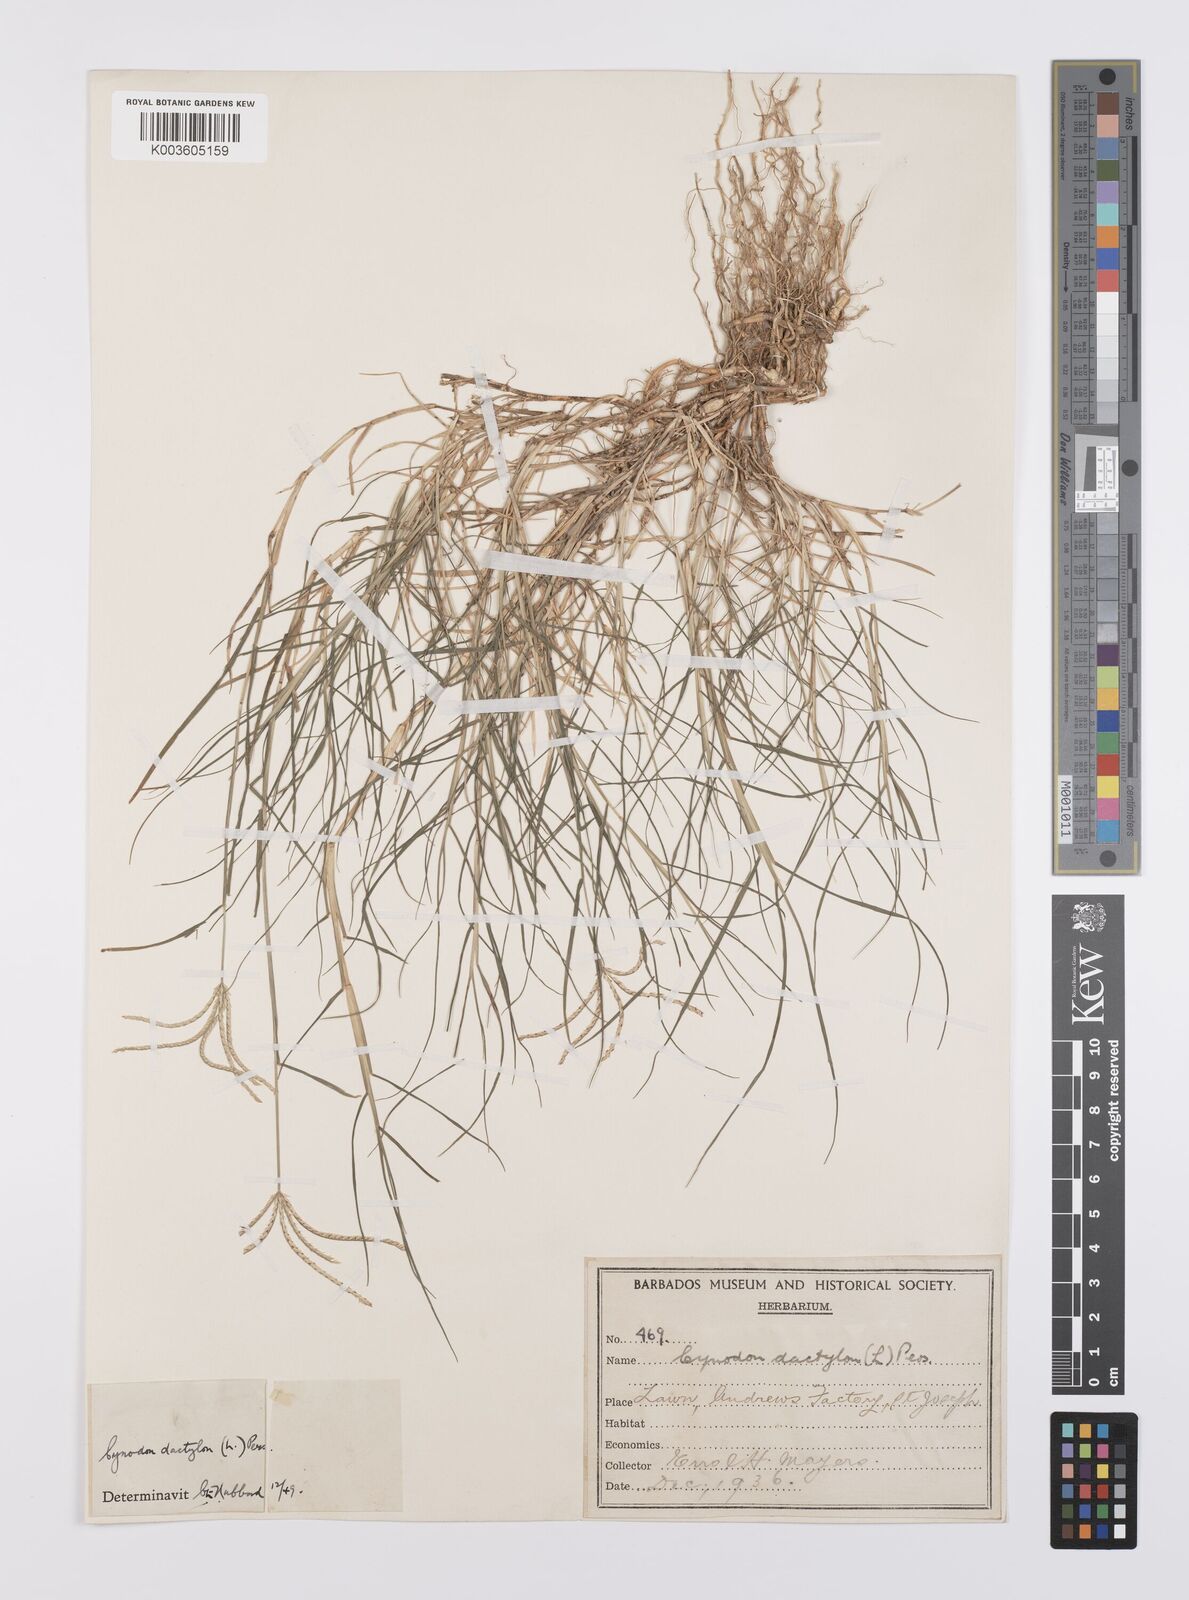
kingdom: Plantae
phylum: Tracheophyta
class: Liliopsida
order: Poales
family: Poaceae
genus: Cynodon
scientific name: Cynodon dactylon
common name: Bermuda grass
